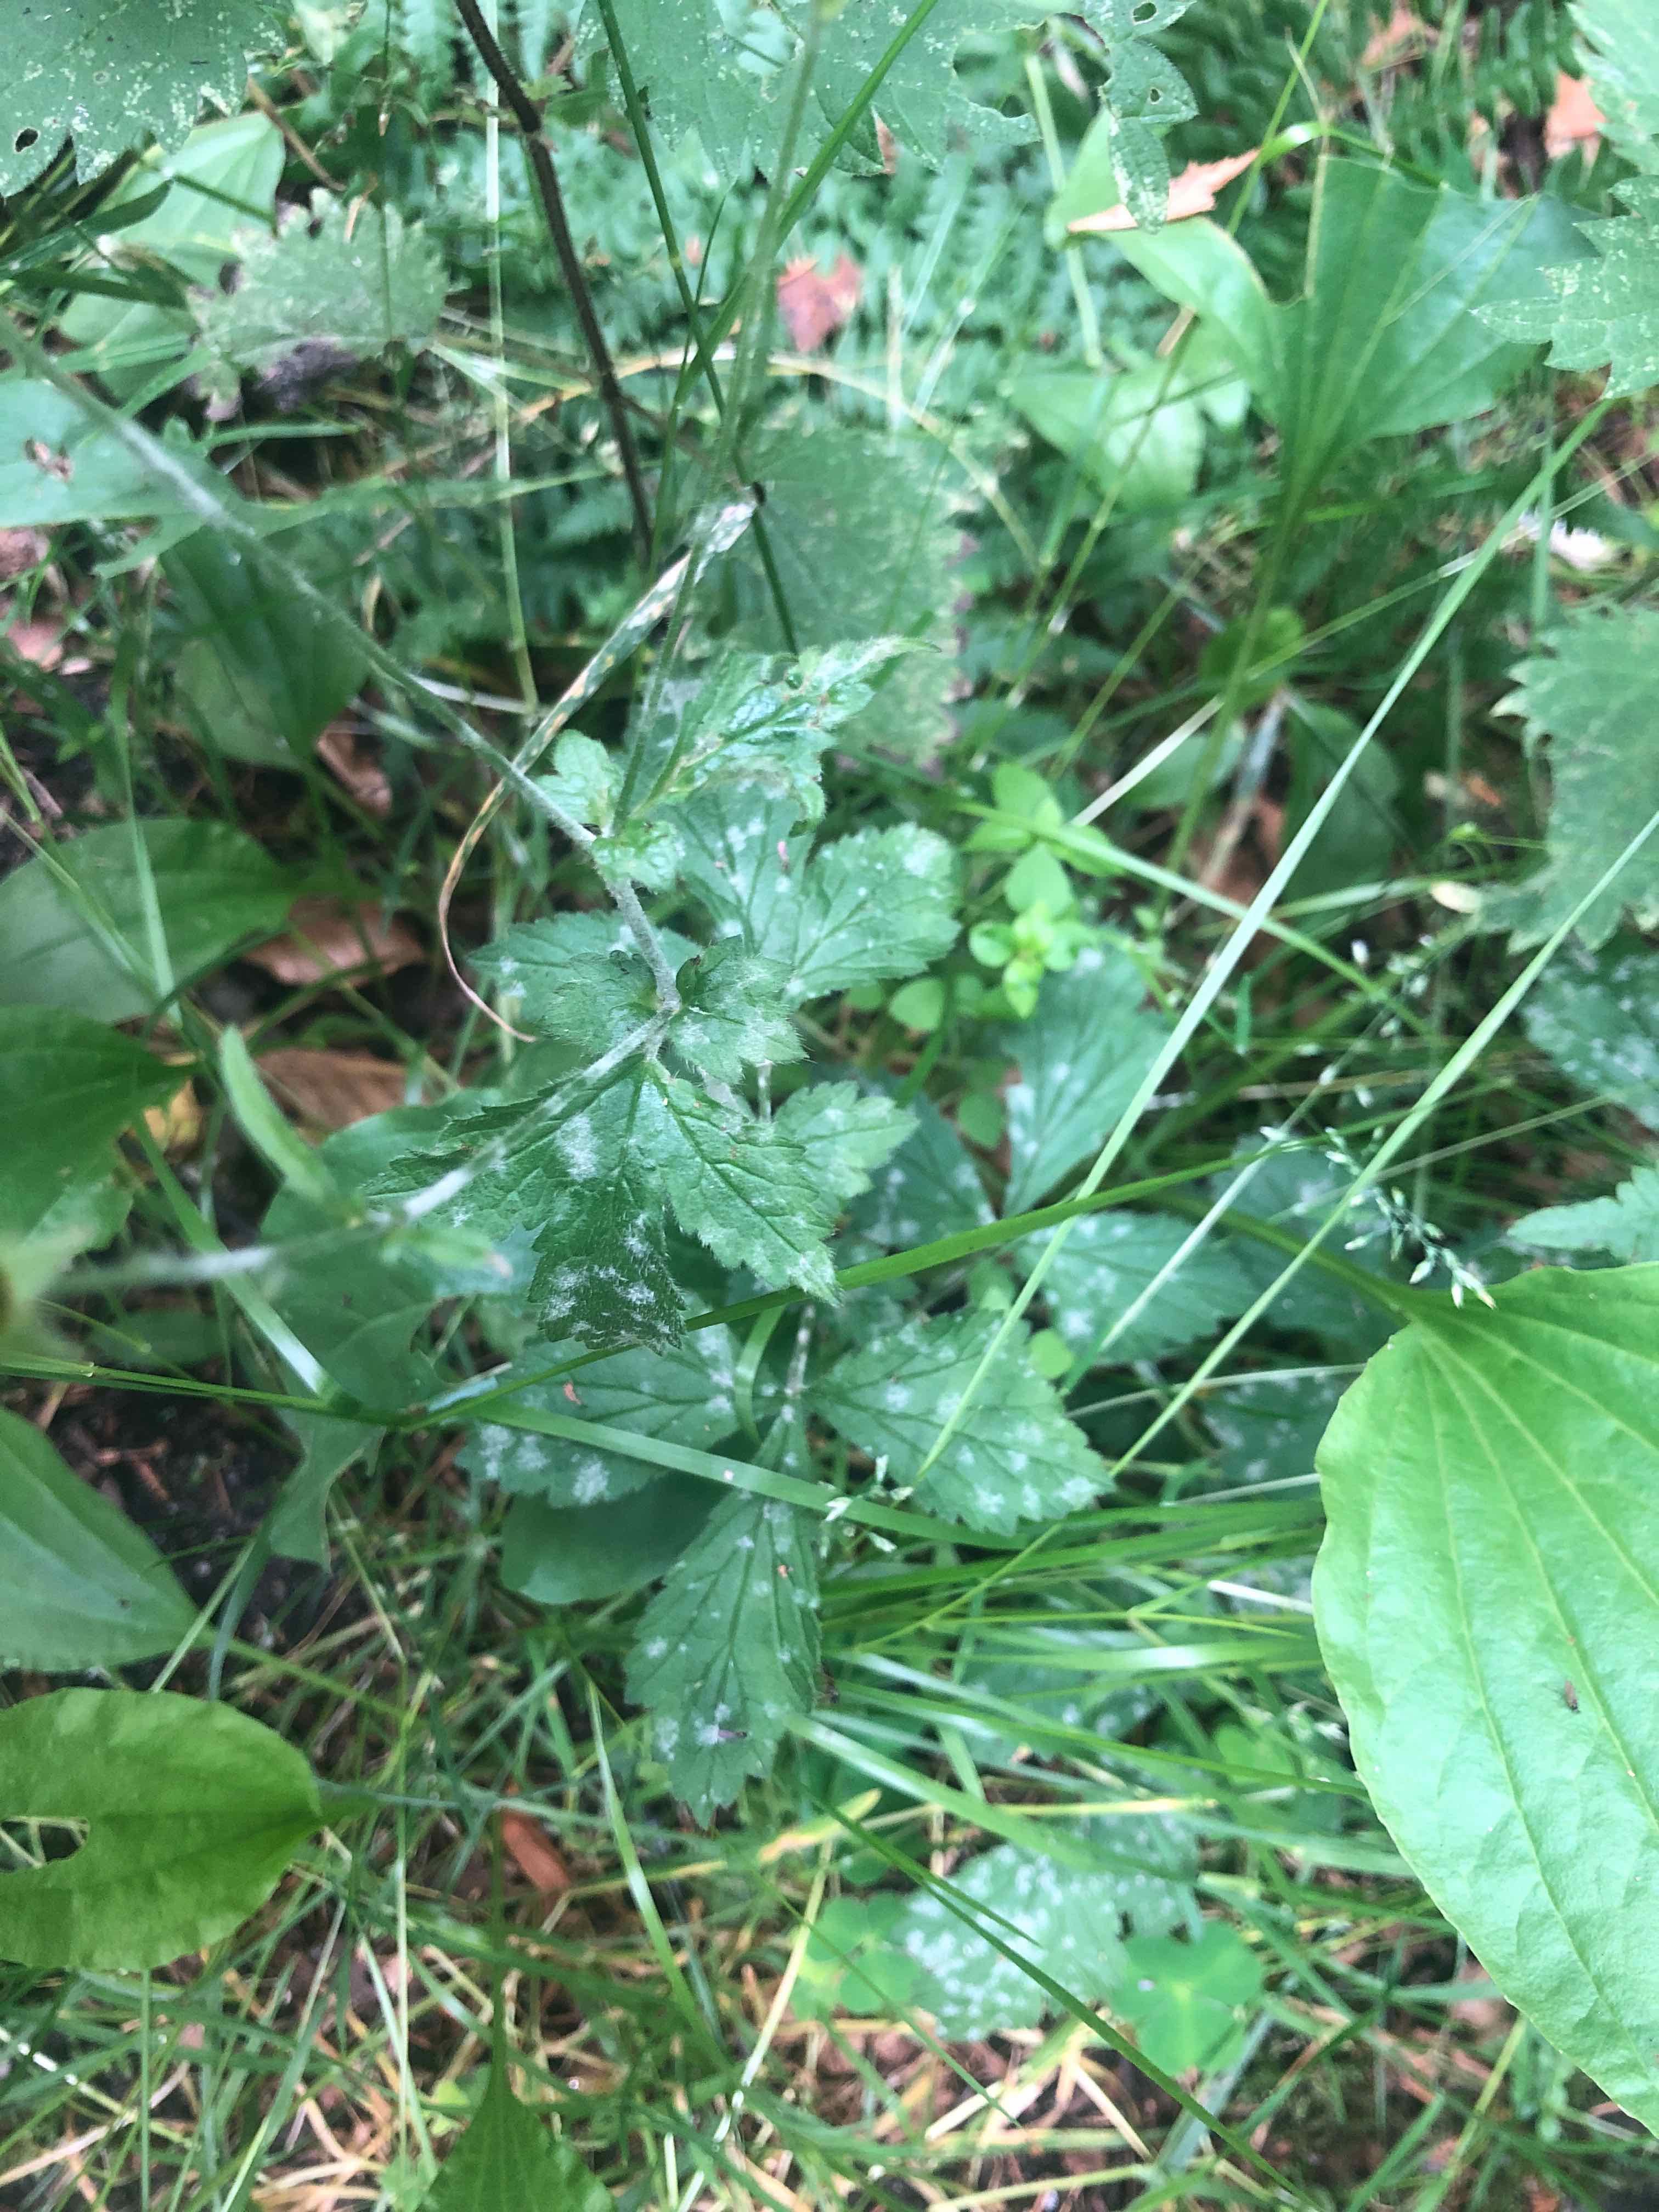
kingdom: Fungi
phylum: Ascomycota
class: Leotiomycetes
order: Helotiales
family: Erysiphaceae
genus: Podosphaera
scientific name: Podosphaera aphanis
